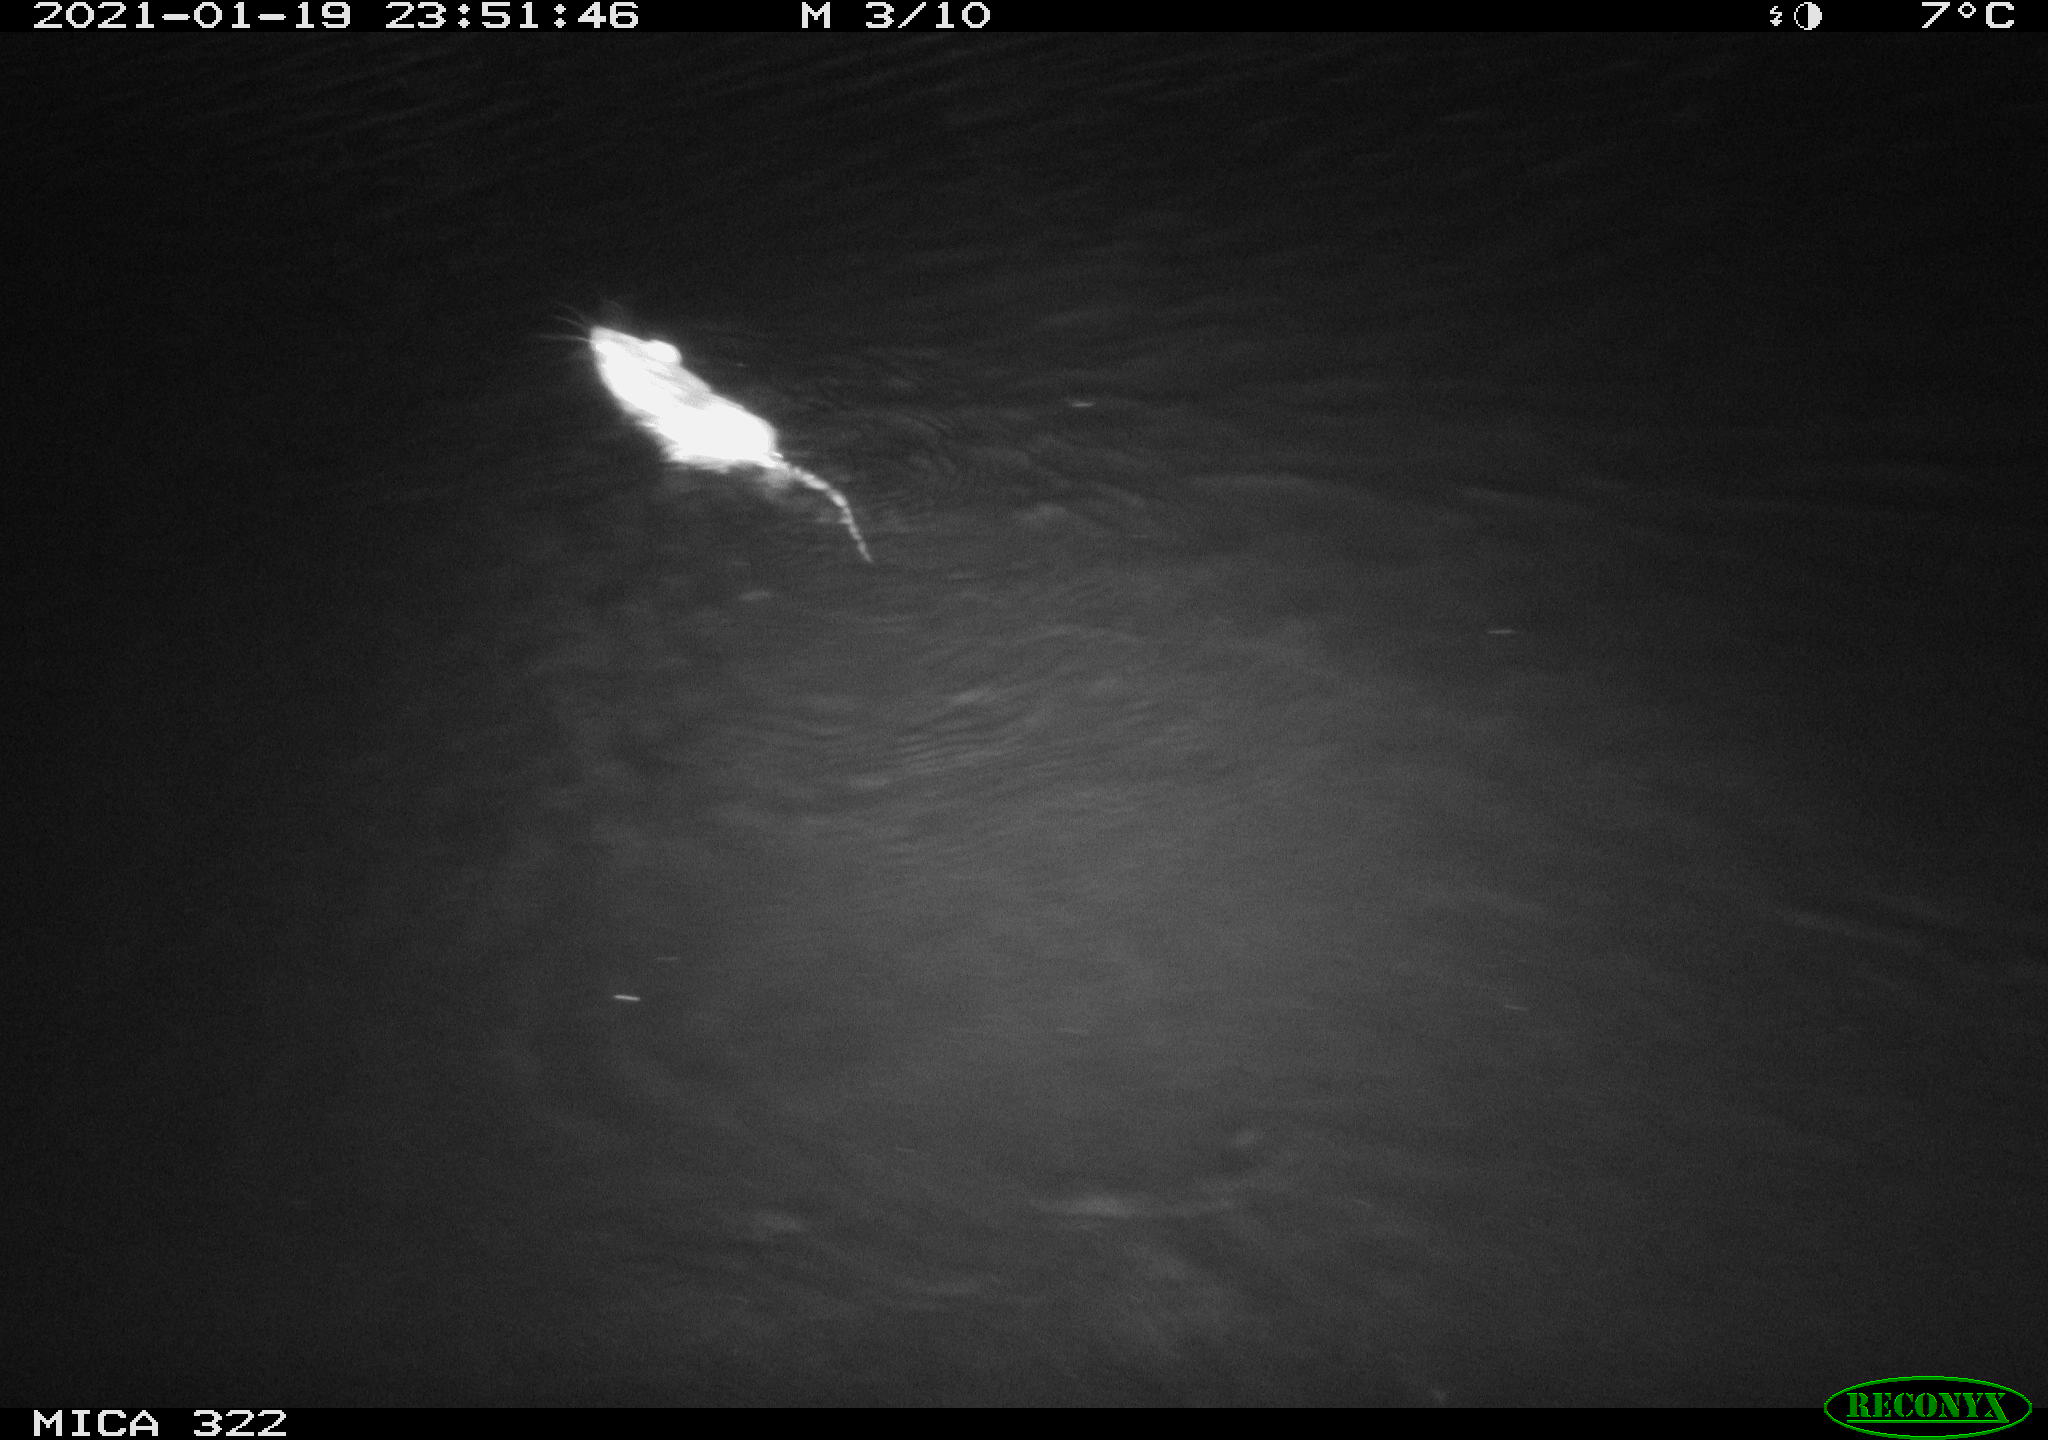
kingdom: Animalia
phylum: Chordata
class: Mammalia
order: Rodentia
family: Muridae
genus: Rattus
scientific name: Rattus norvegicus
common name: Brown rat
